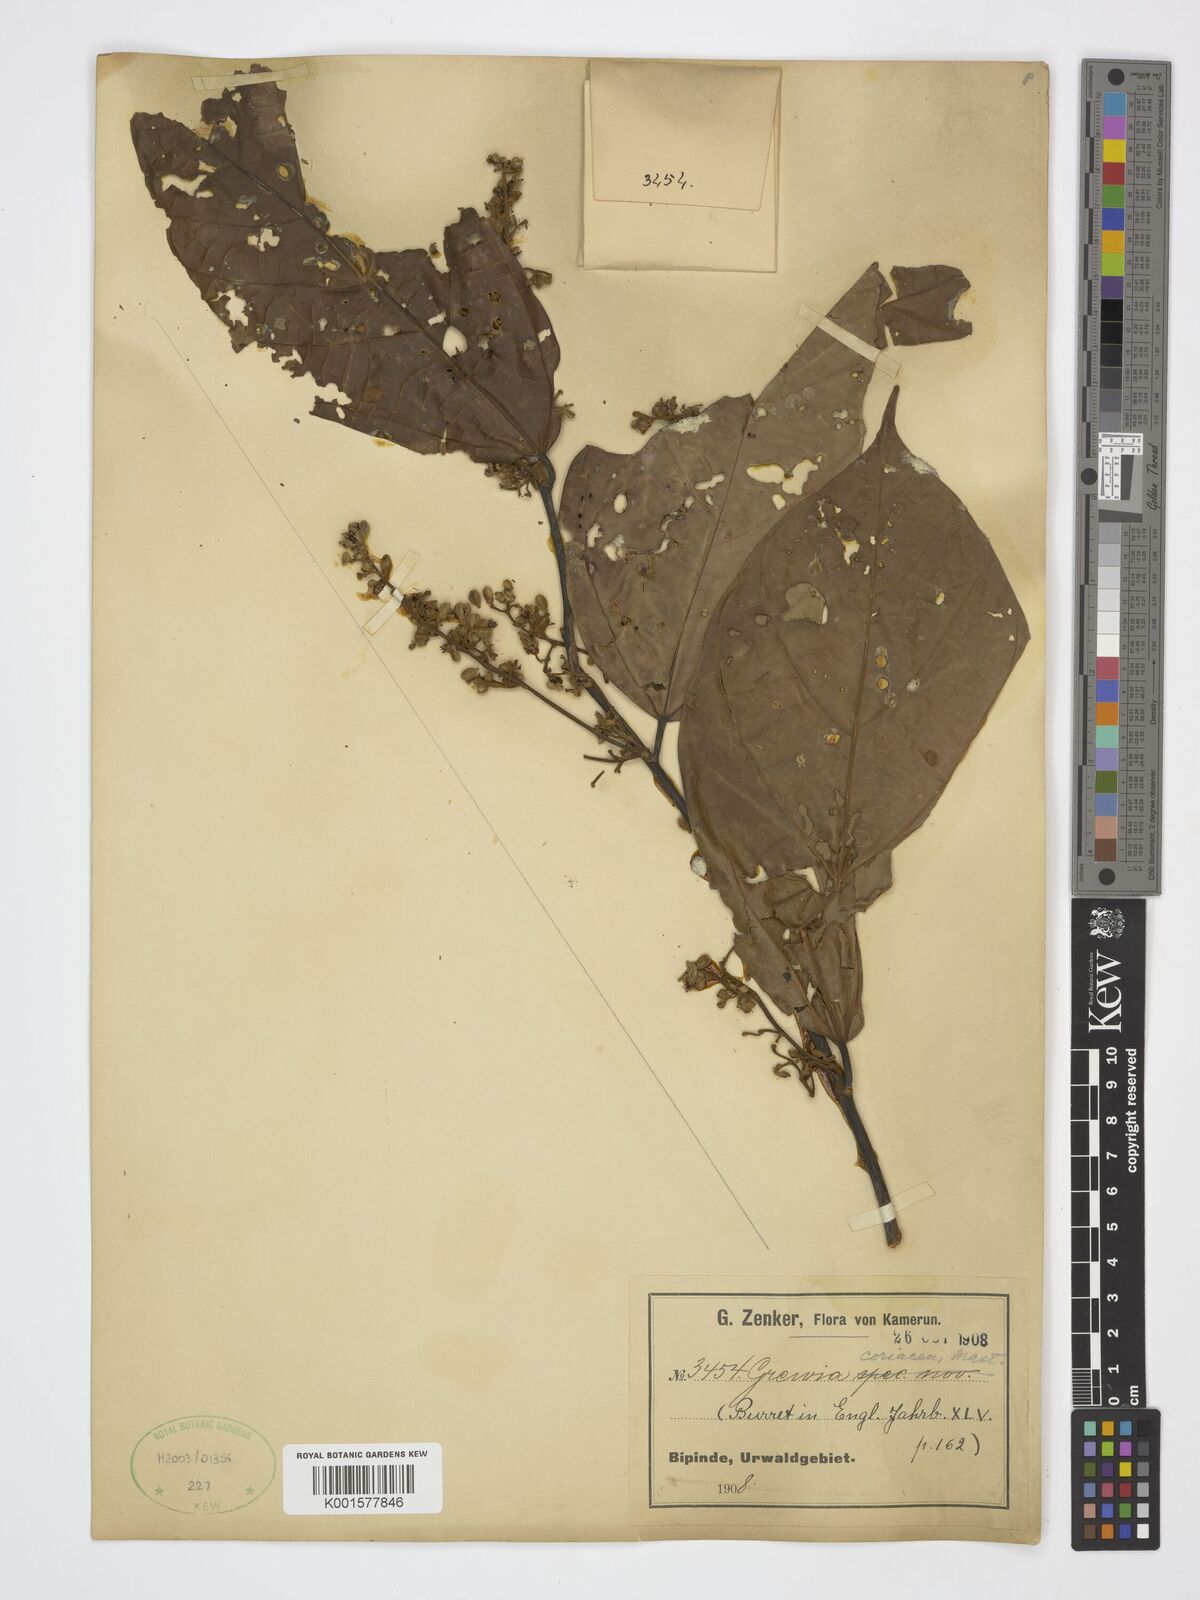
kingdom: Plantae
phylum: Tracheophyta
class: Magnoliopsida
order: Malvales
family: Malvaceae
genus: Microcos
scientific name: Microcos coriacea
